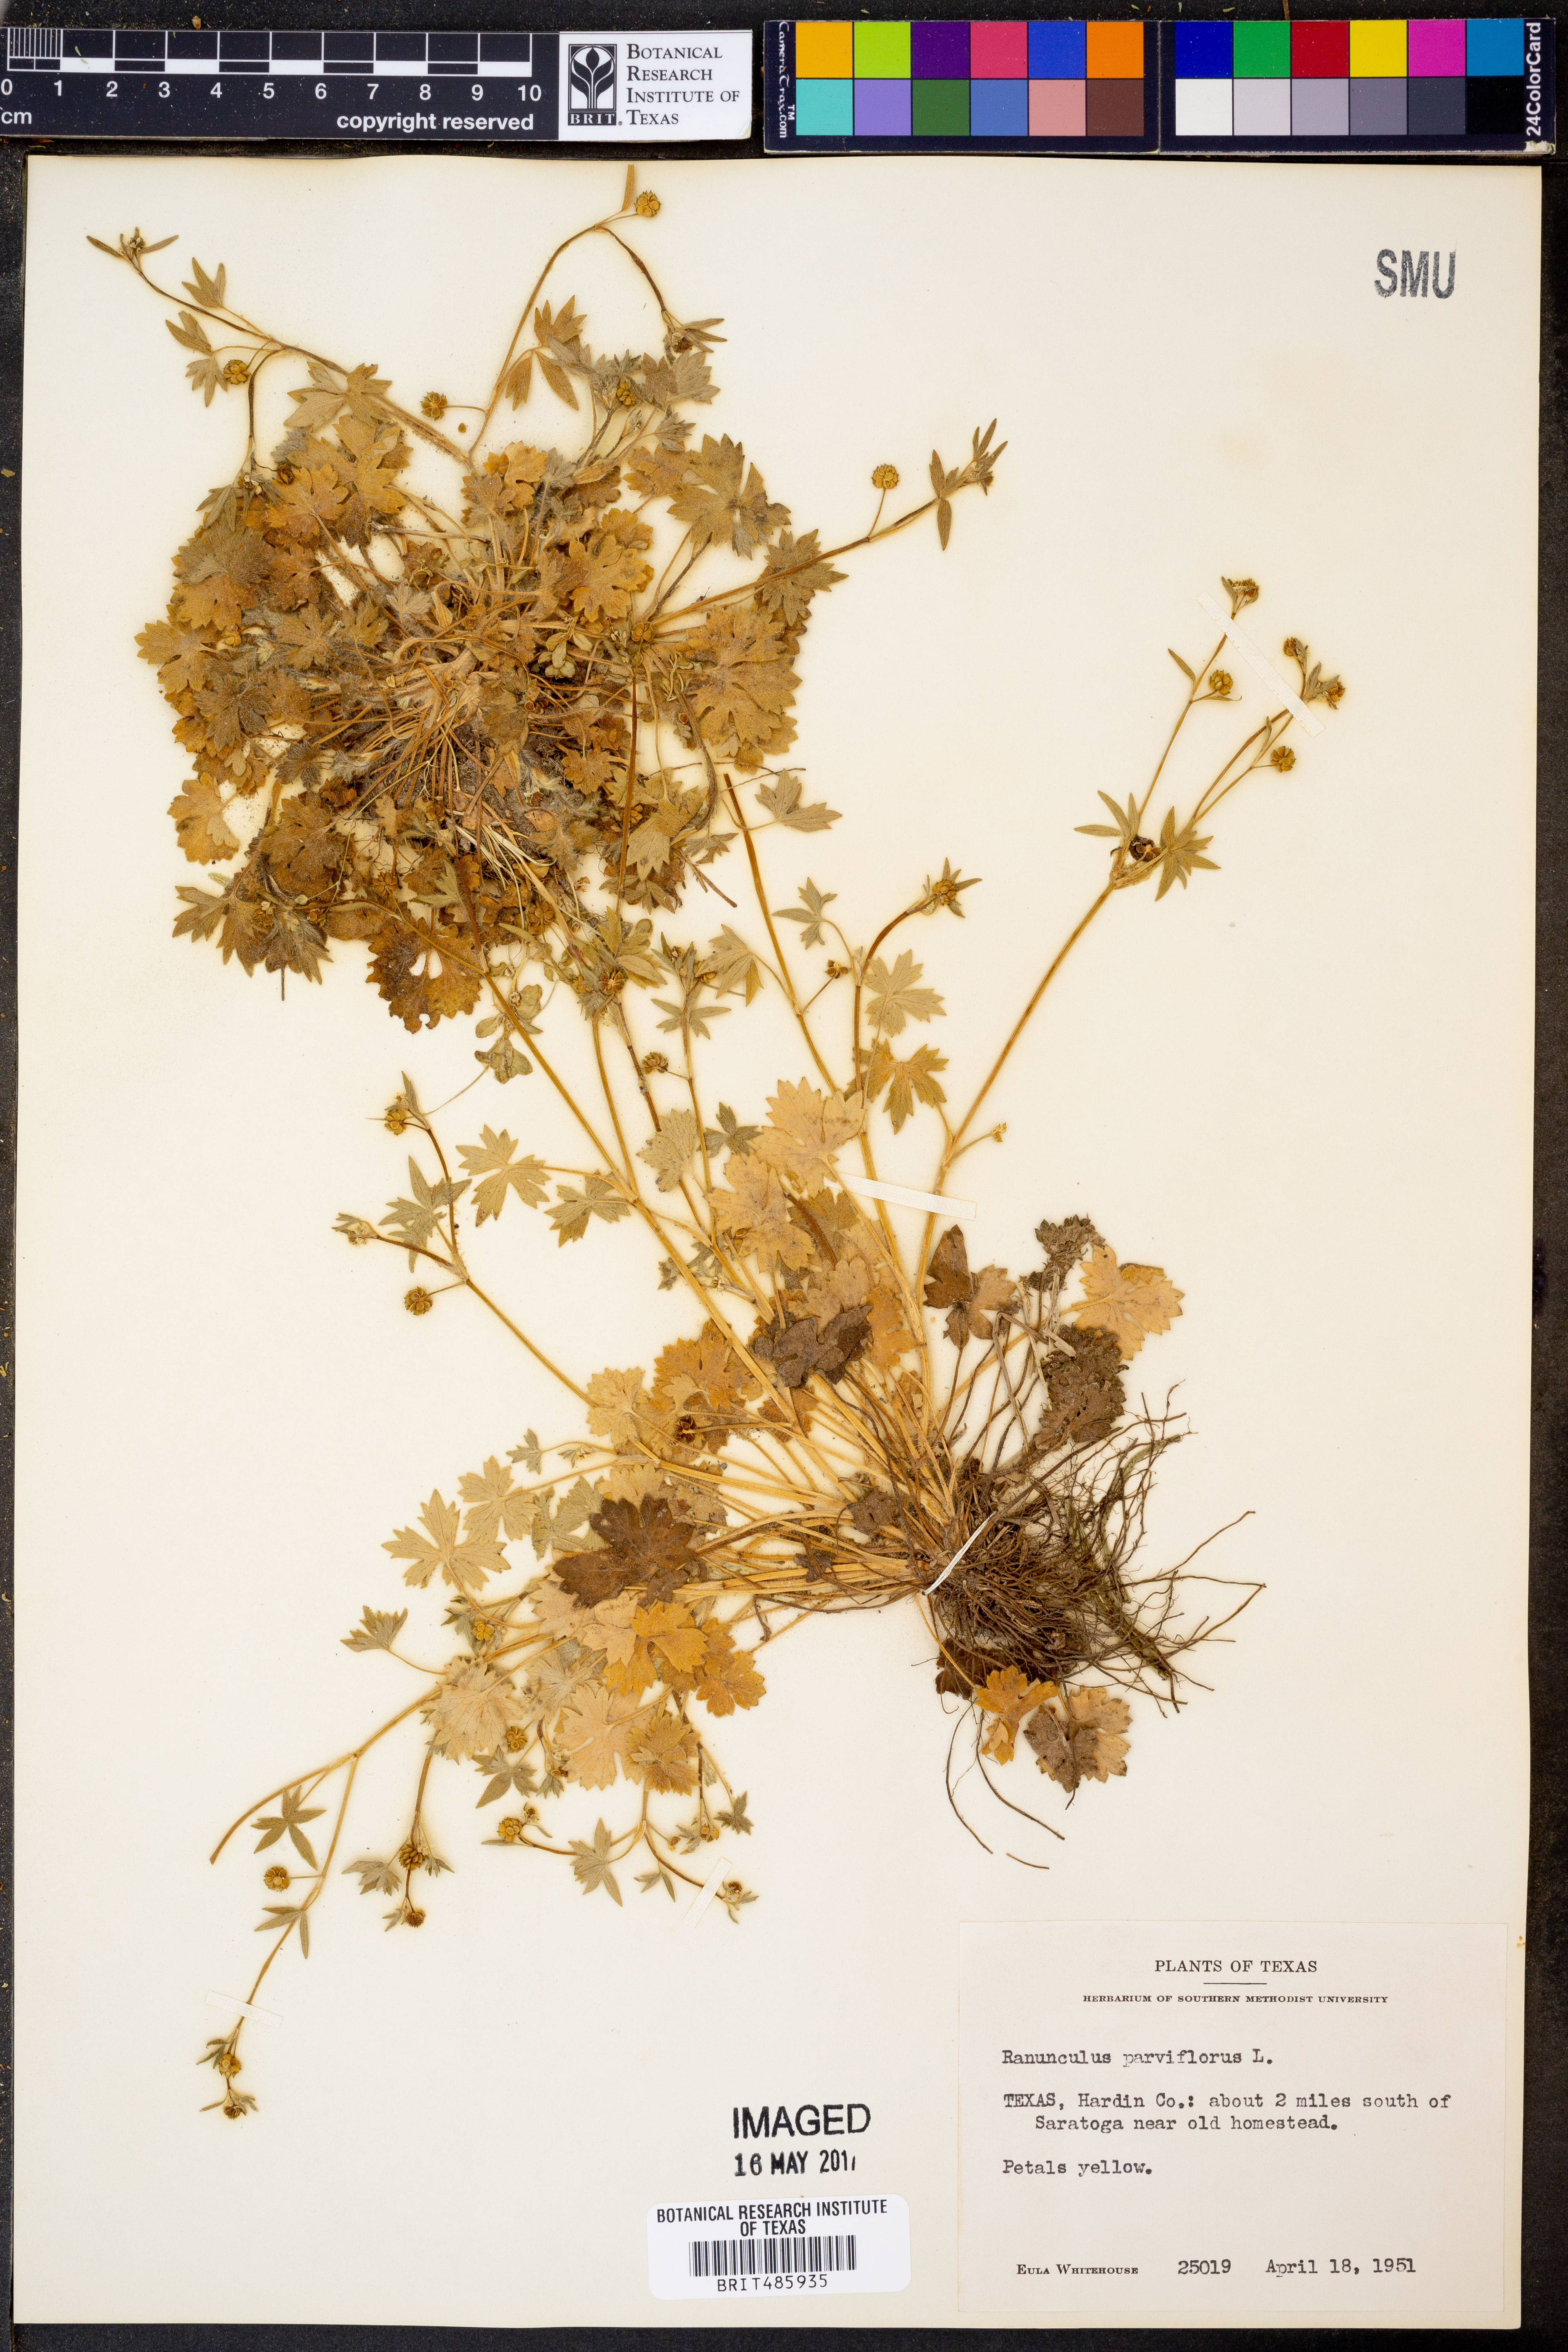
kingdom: Plantae
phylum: Tracheophyta
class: Magnoliopsida
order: Ranunculales
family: Ranunculaceae
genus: Ranunculus
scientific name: Ranunculus parviflorus
